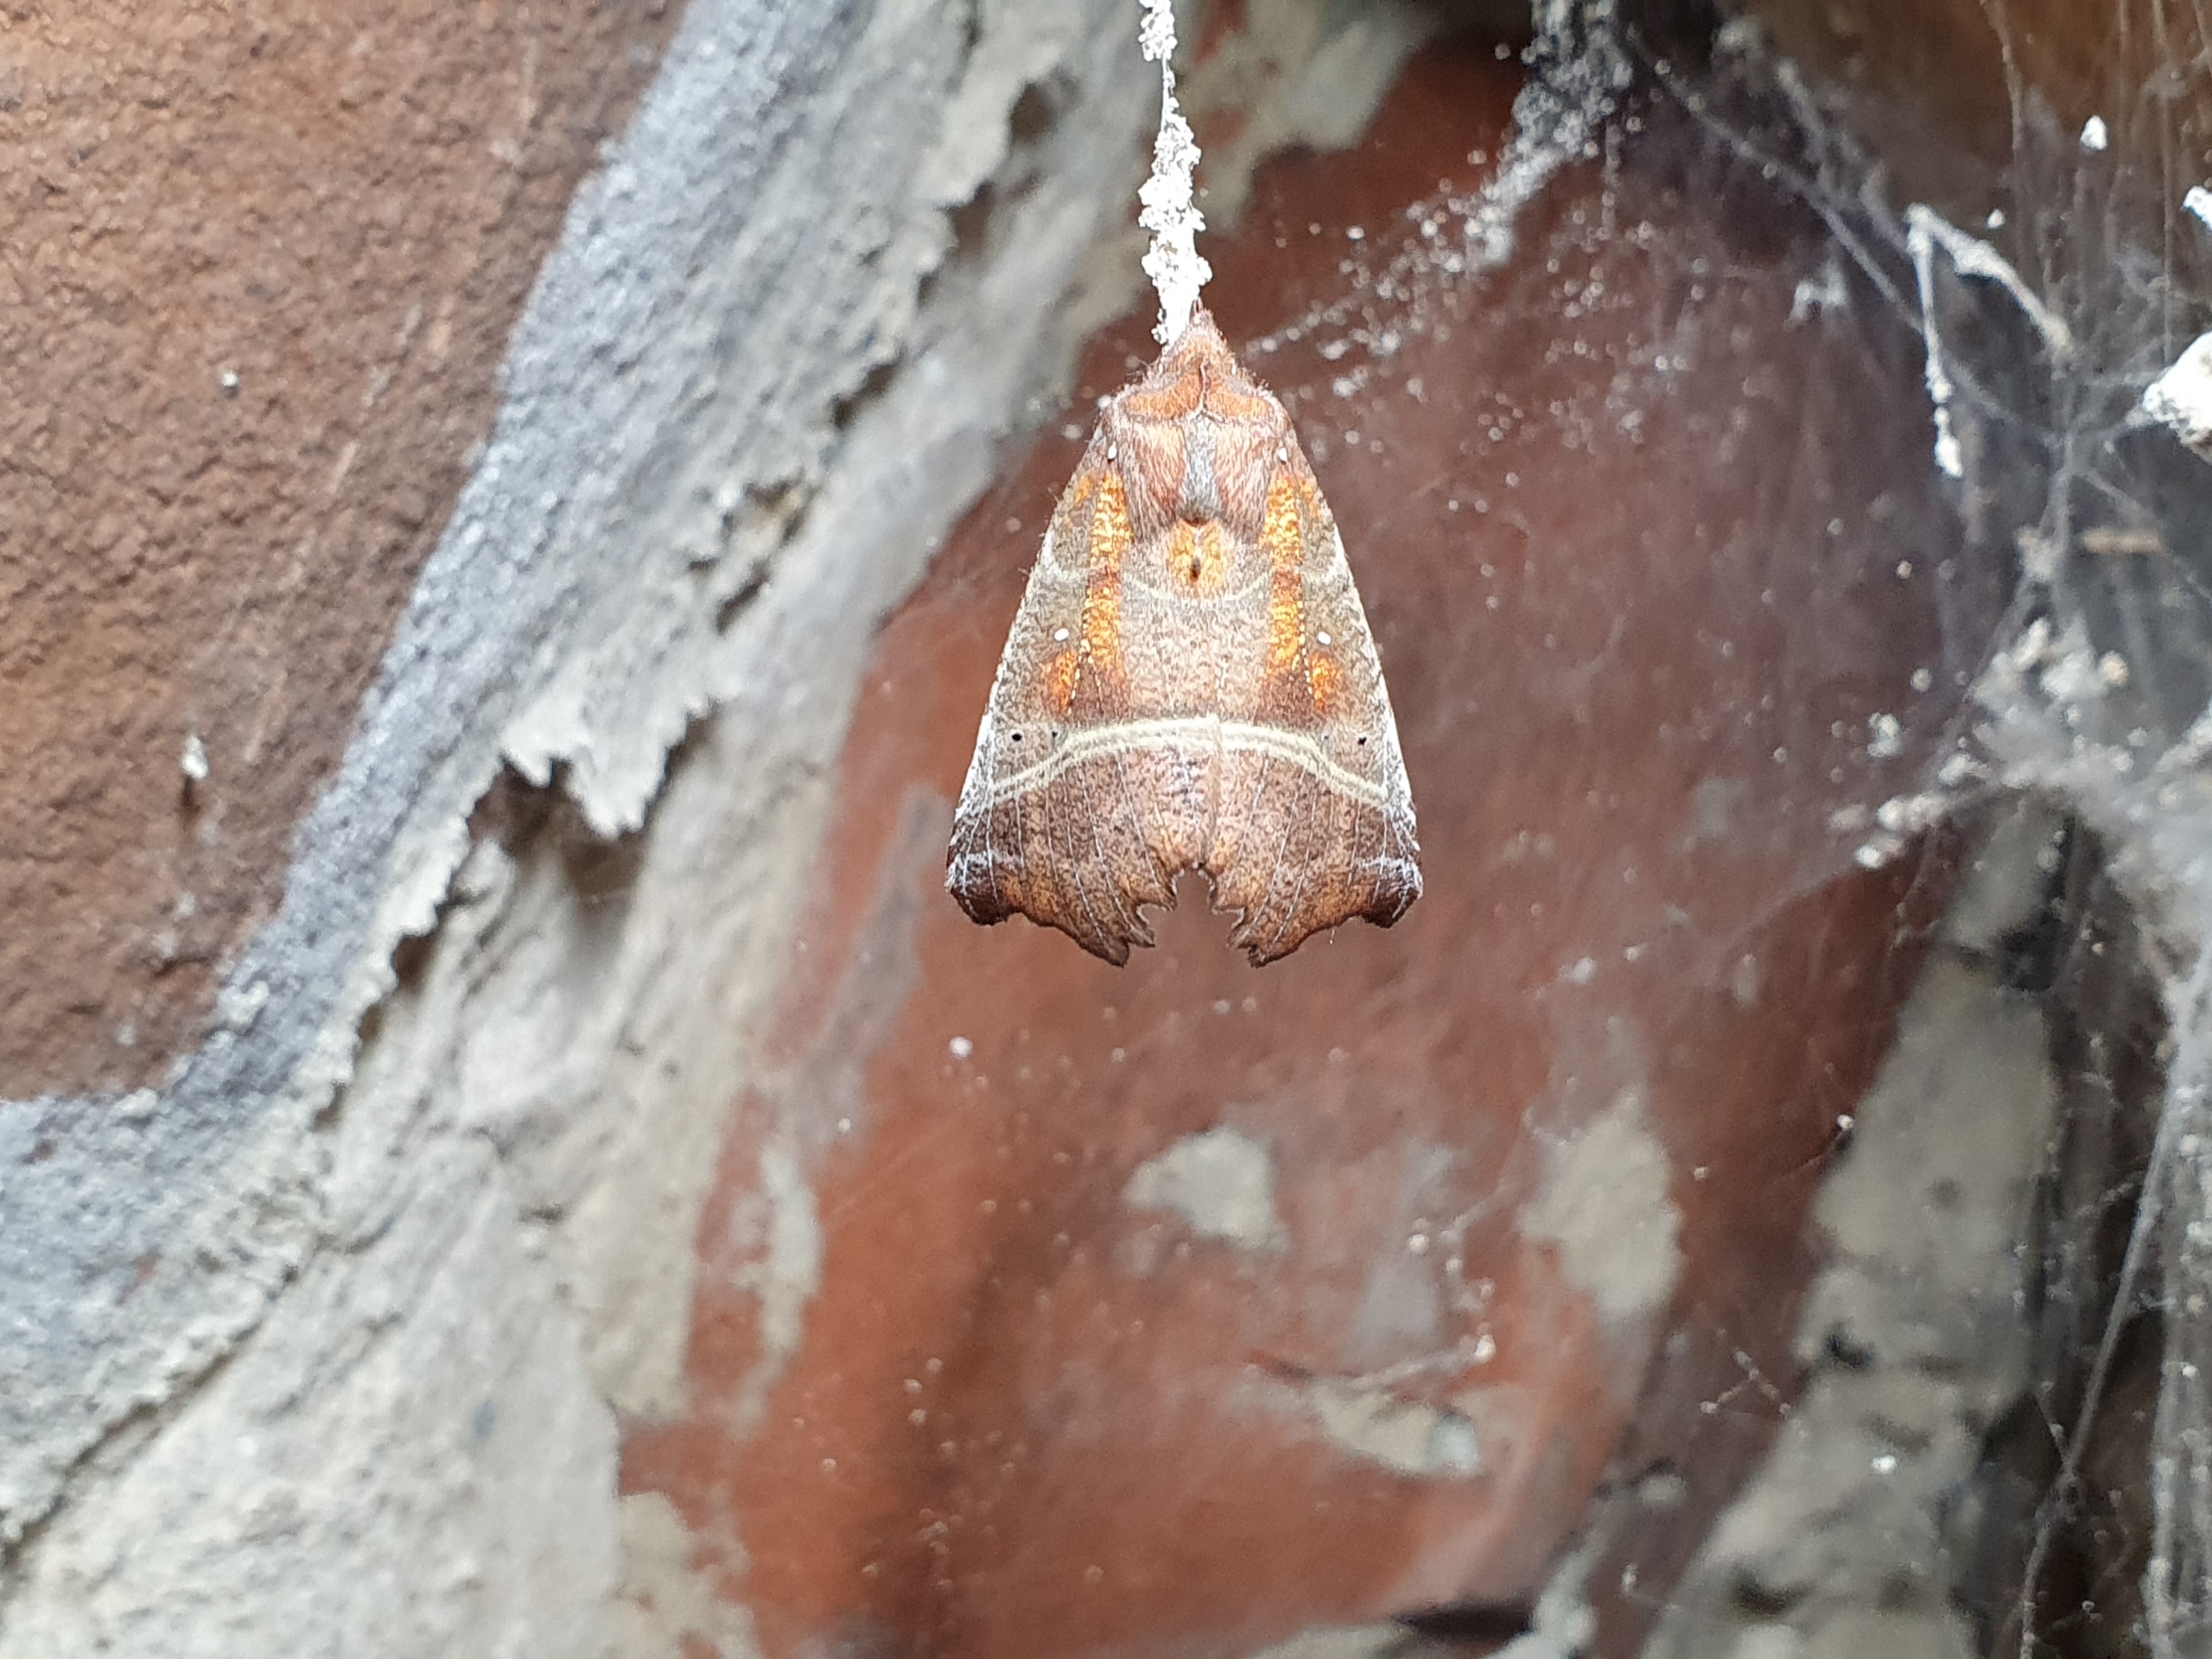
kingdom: Animalia
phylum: Arthropoda
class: Insecta
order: Lepidoptera
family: Erebidae
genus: Scoliopteryx
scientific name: Scoliopteryx libatrix
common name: Husmoderugle
